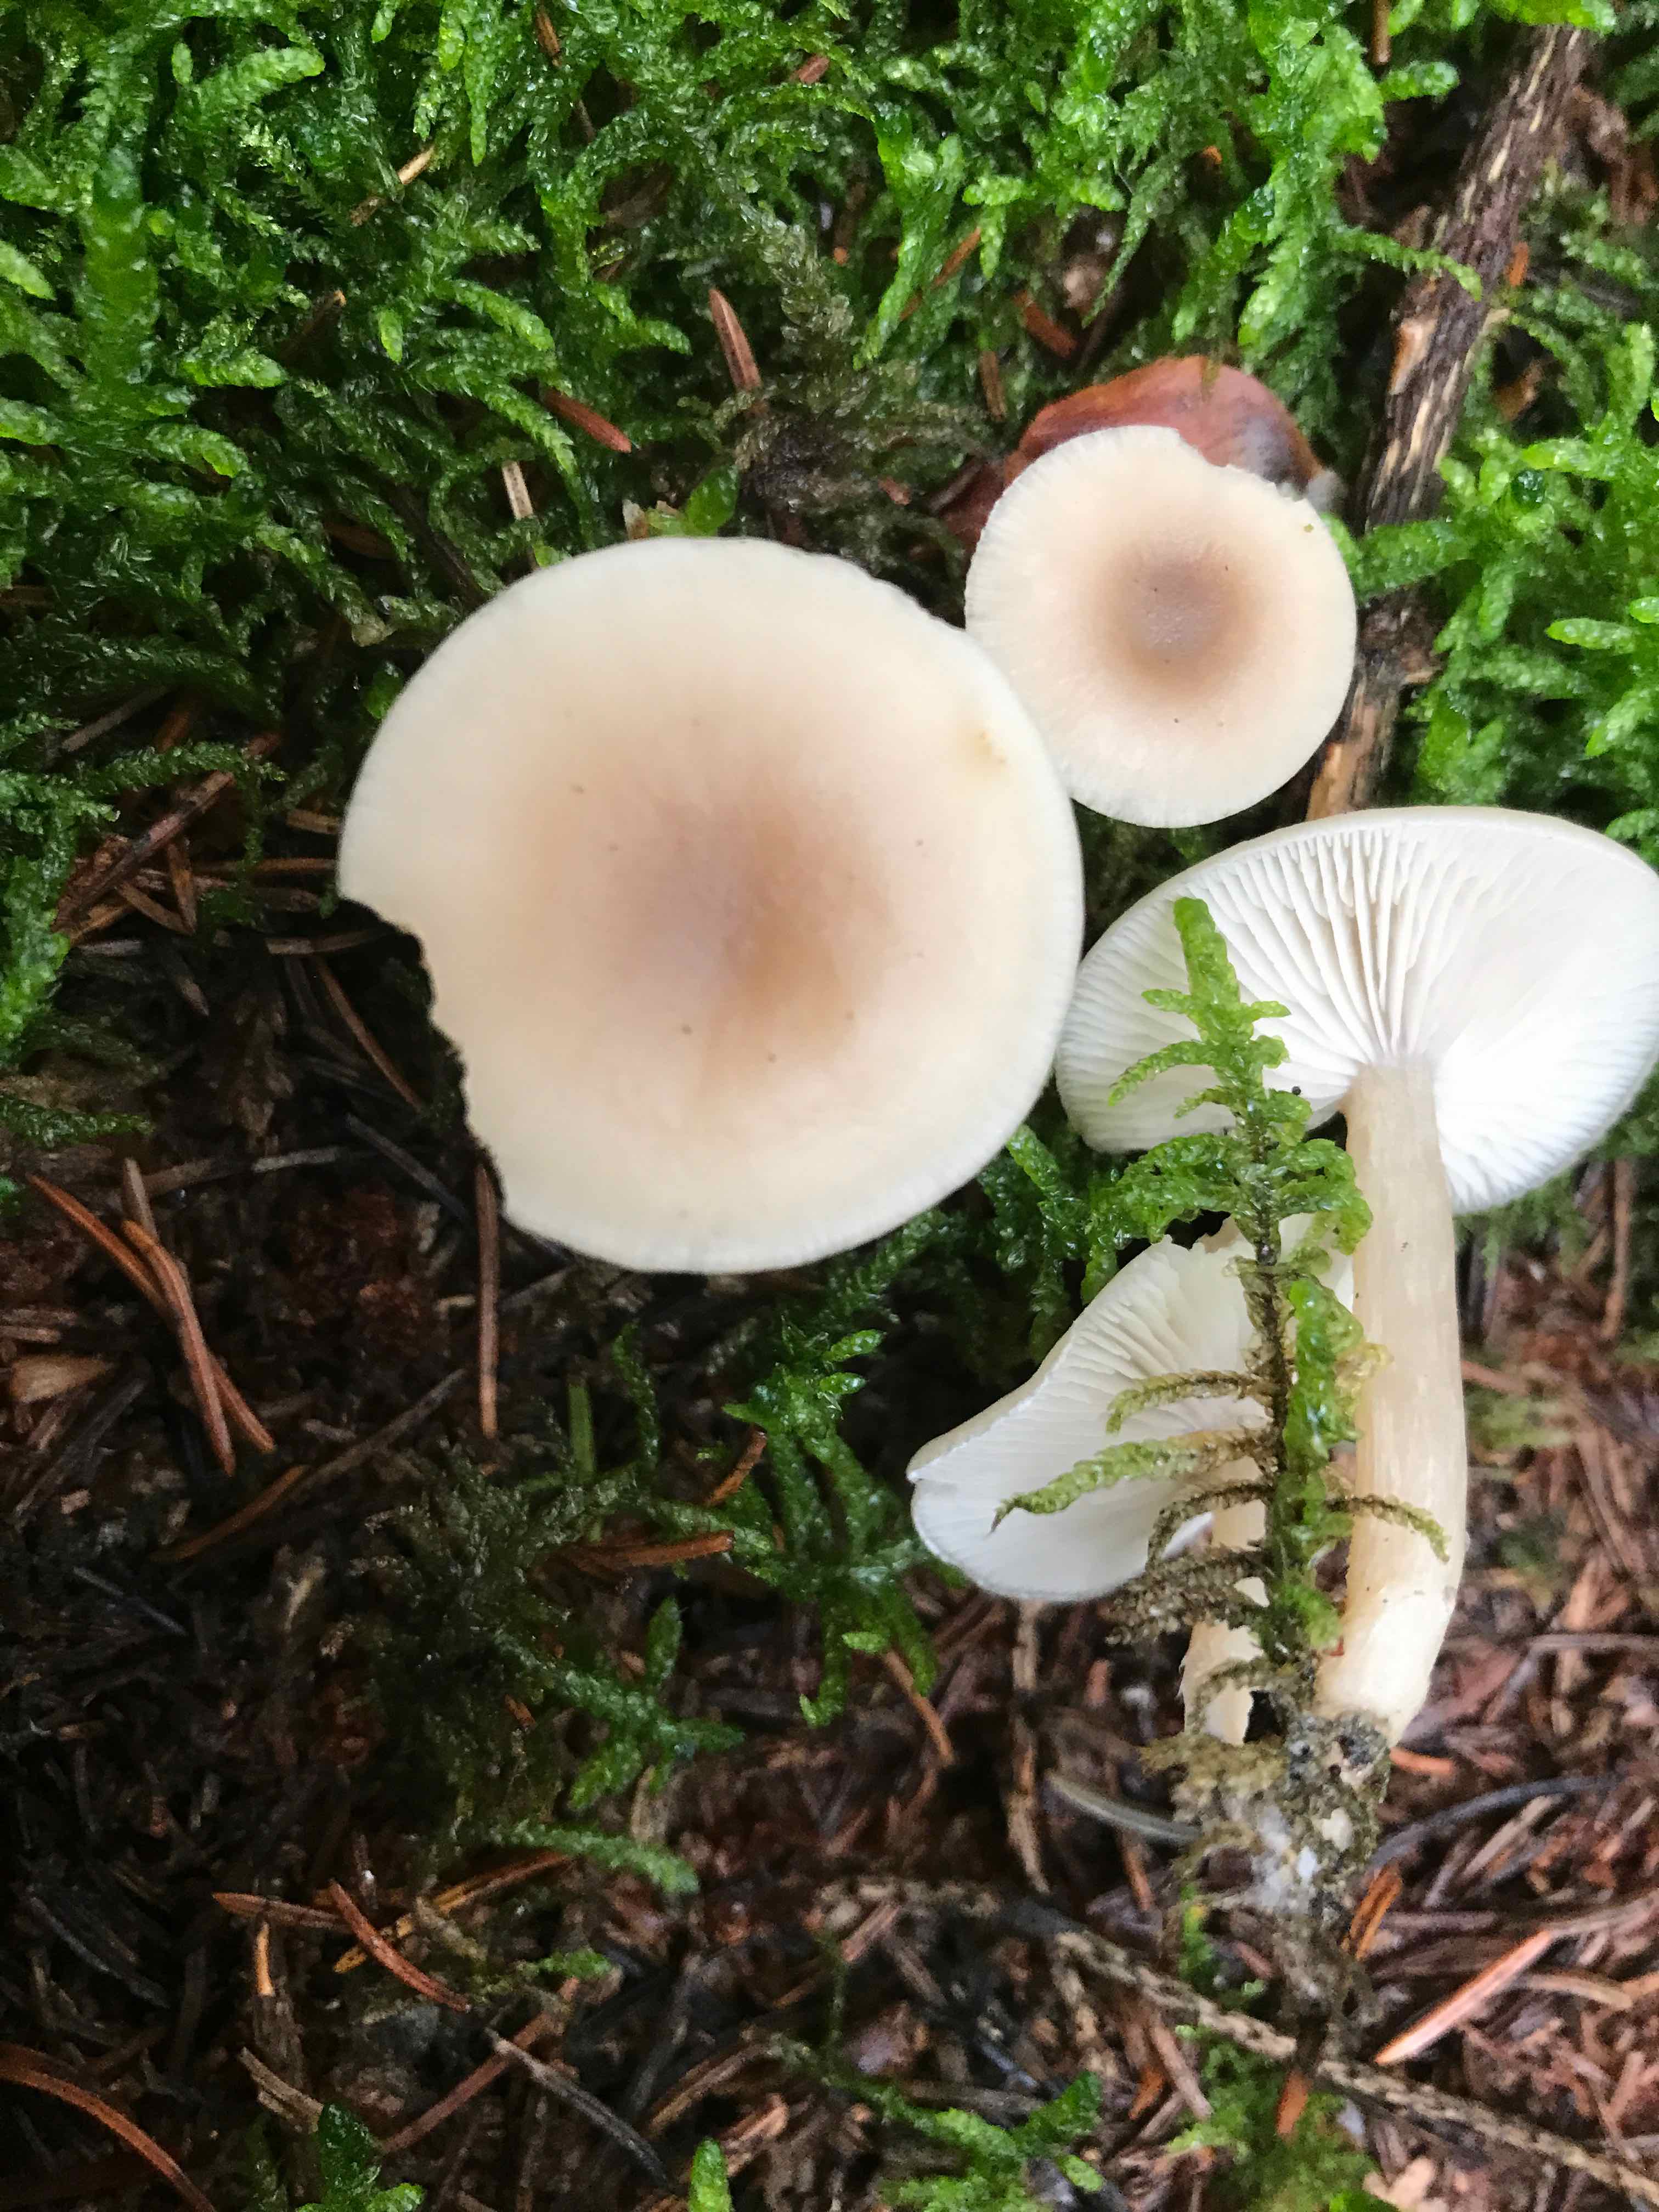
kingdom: Fungi
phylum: Basidiomycota
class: Agaricomycetes
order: Agaricales
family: Tricholomataceae
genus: Clitocybe
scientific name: Clitocybe fragrans
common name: vellugtende tragthat
